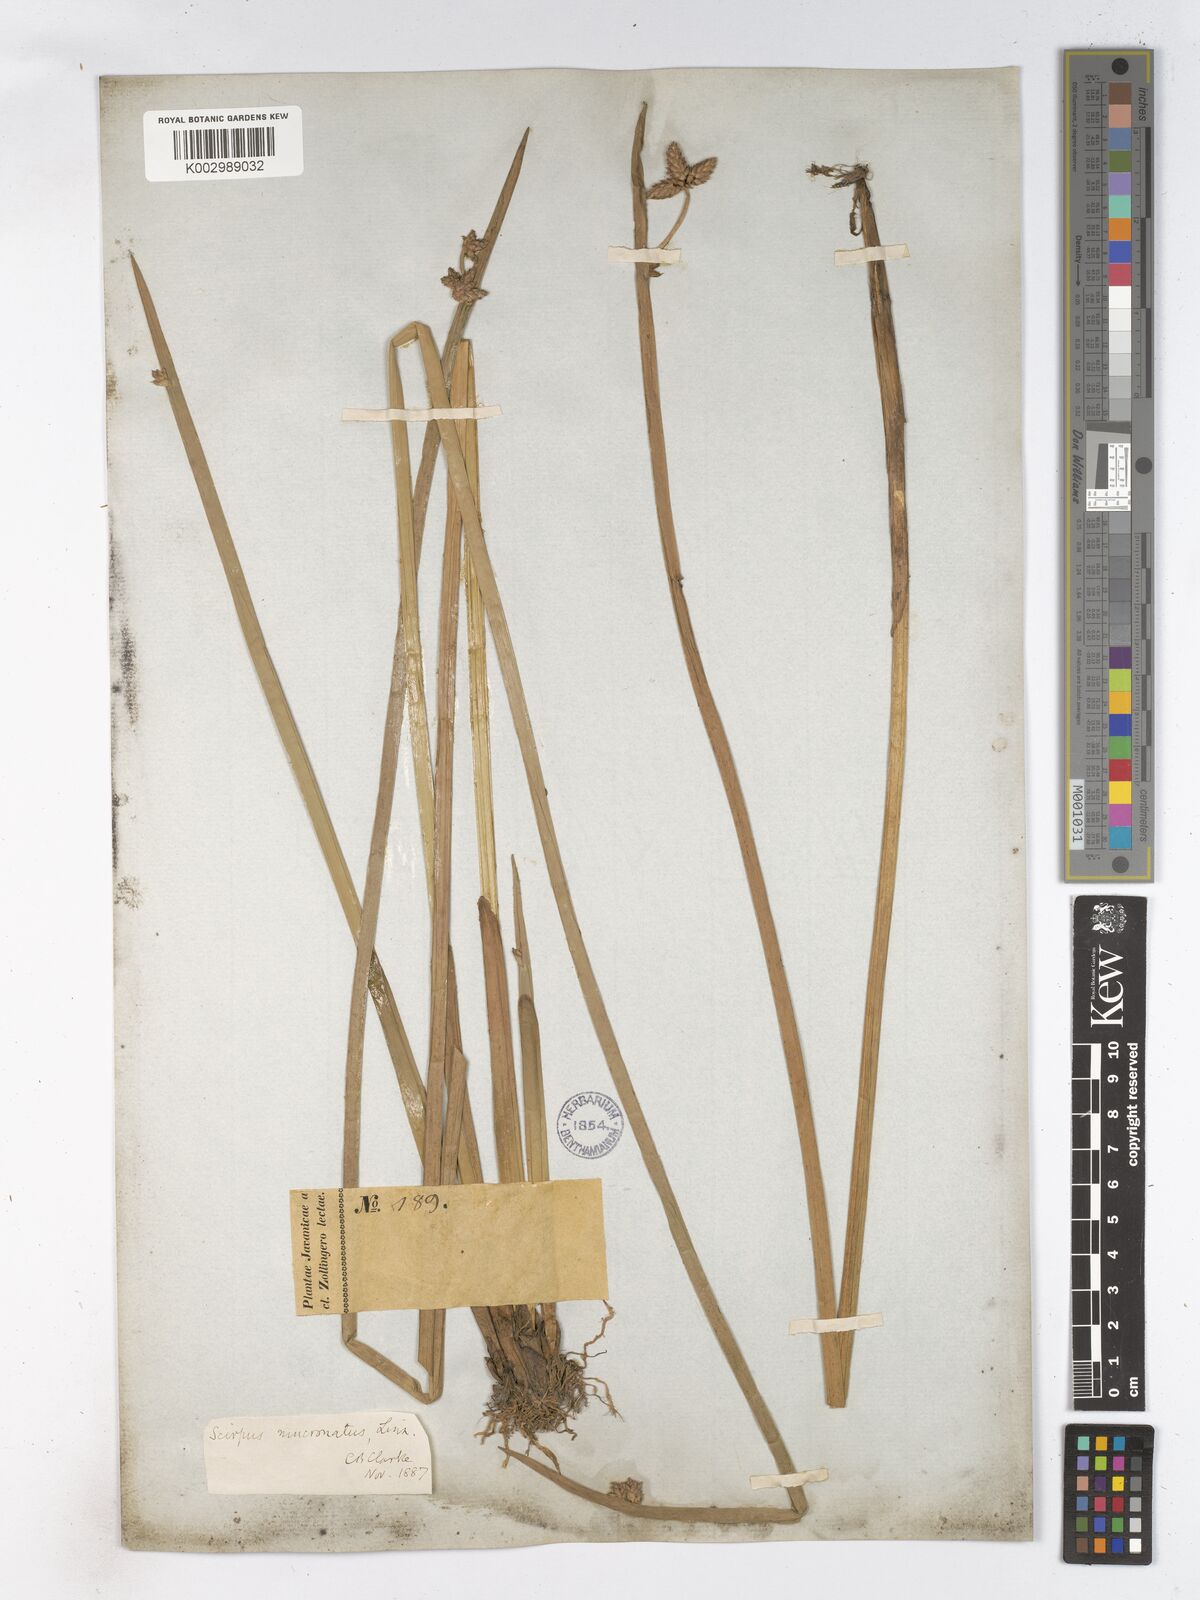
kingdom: Plantae
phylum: Tracheophyta
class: Liliopsida
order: Poales
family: Cyperaceae
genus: Schoenoplectiella
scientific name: Schoenoplectiella mucronata
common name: Bog bulrush
